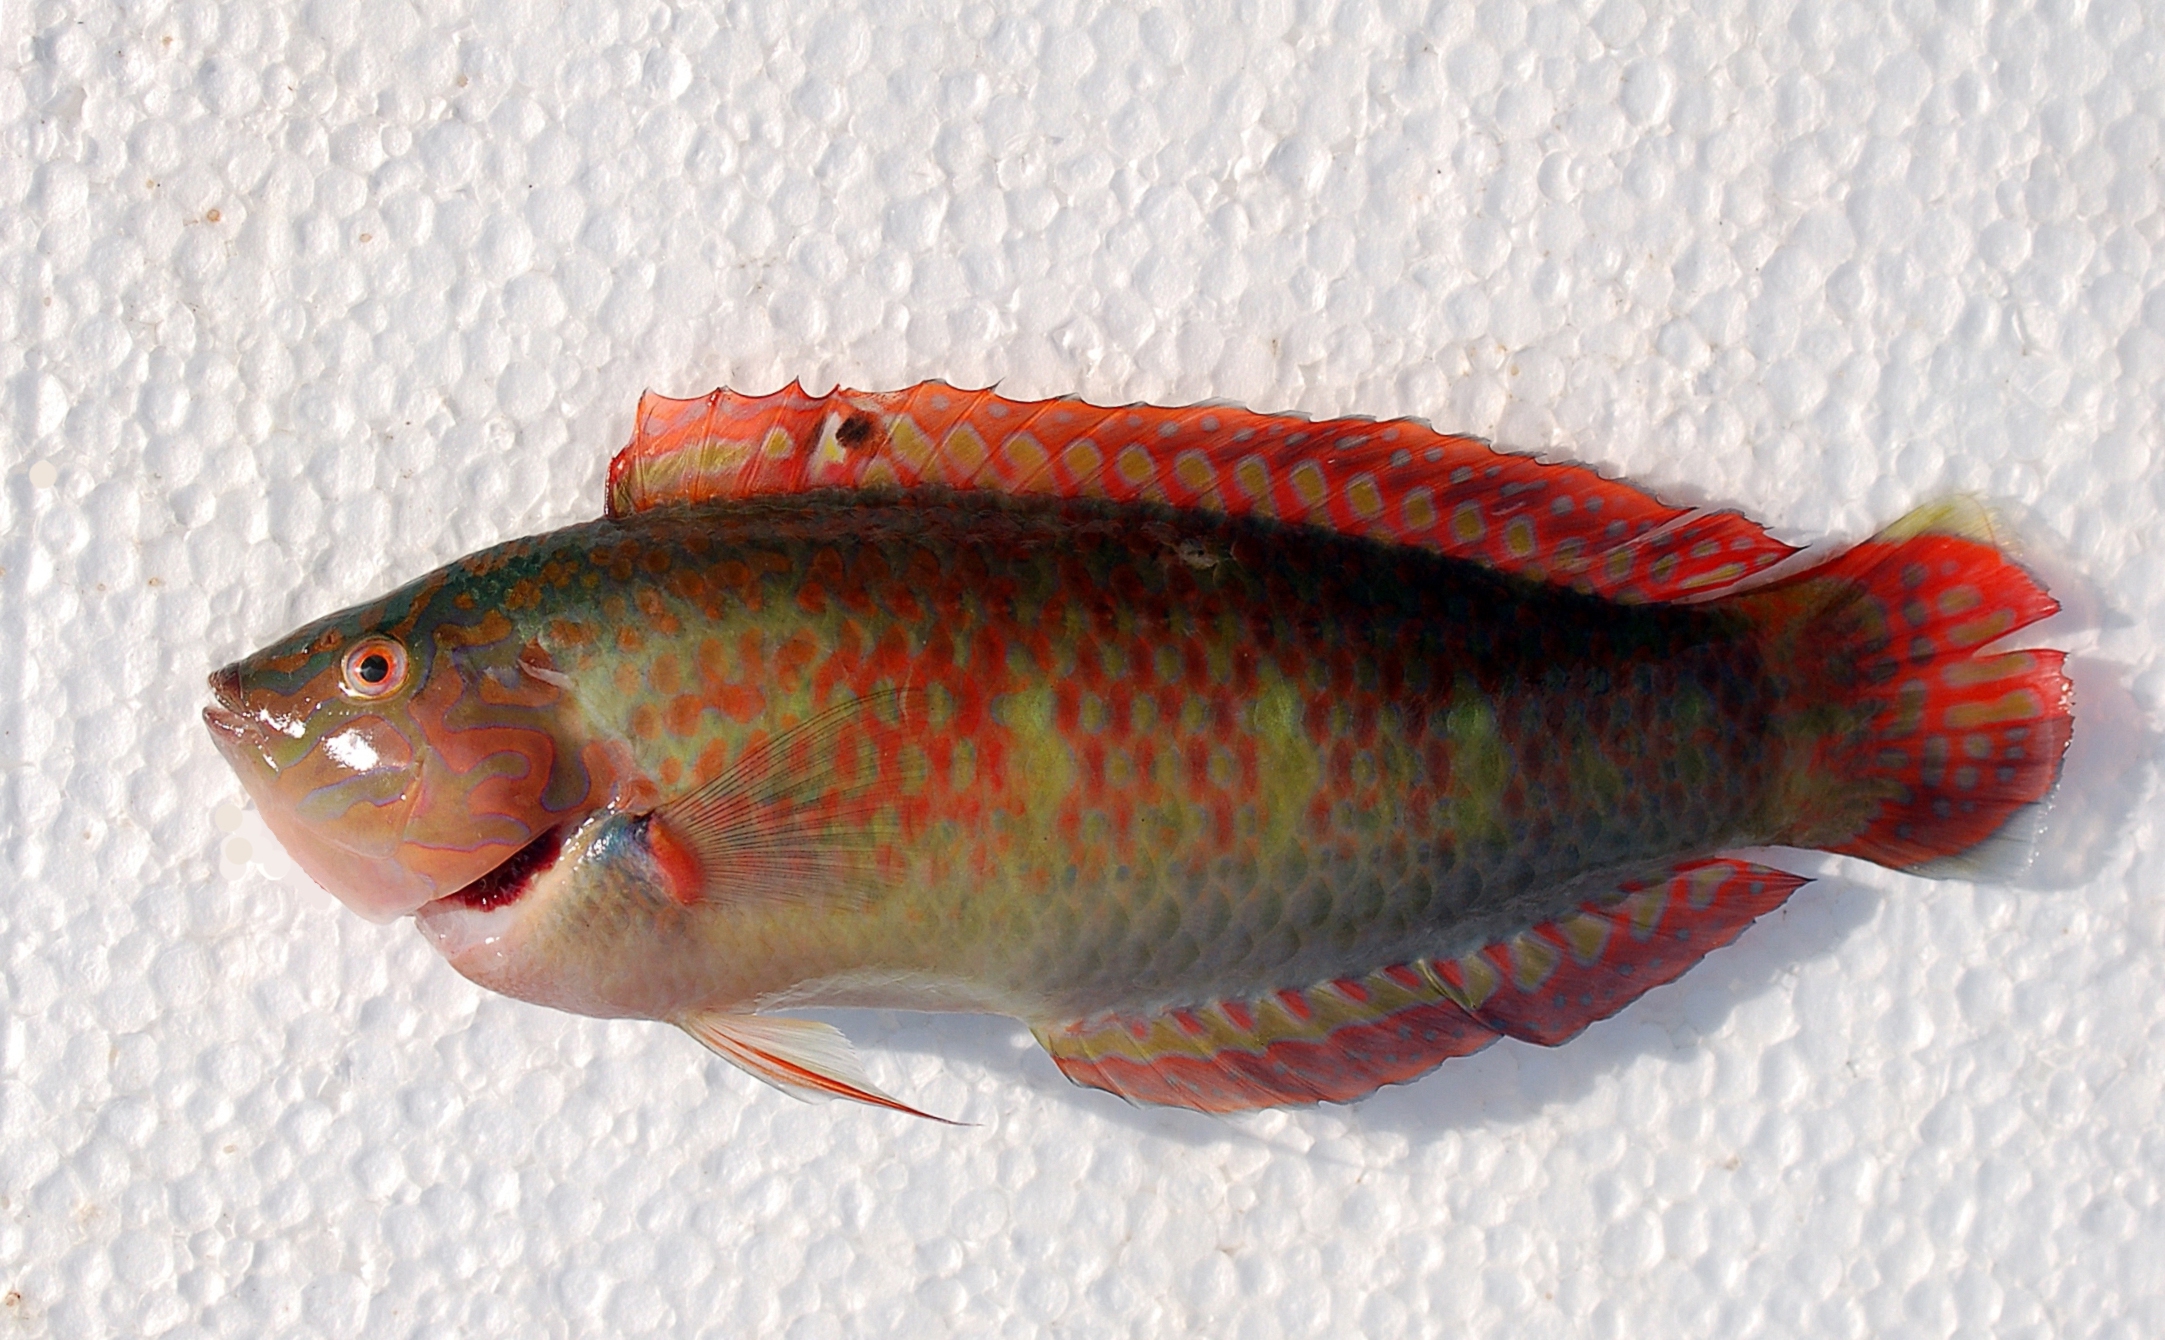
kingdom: Animalia
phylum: Chordata
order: Perciformes
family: Labridae
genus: Halichoeres
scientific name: Halichoeres nigrescens
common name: Bubblefin wrasse
